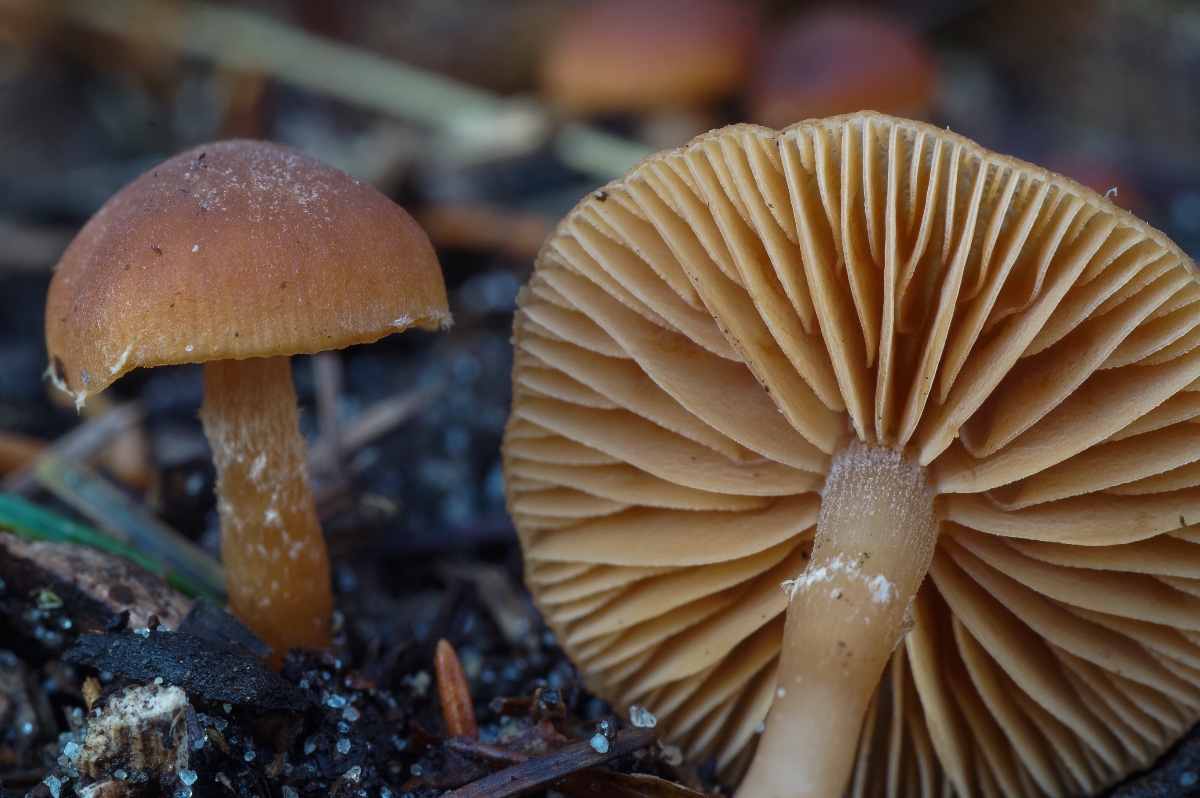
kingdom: Fungi
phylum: Basidiomycota
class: Agaricomycetes
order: Agaricales
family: Tubariaceae
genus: Tubaria
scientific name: Tubaria furfuracea
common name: kliddet fnughat
